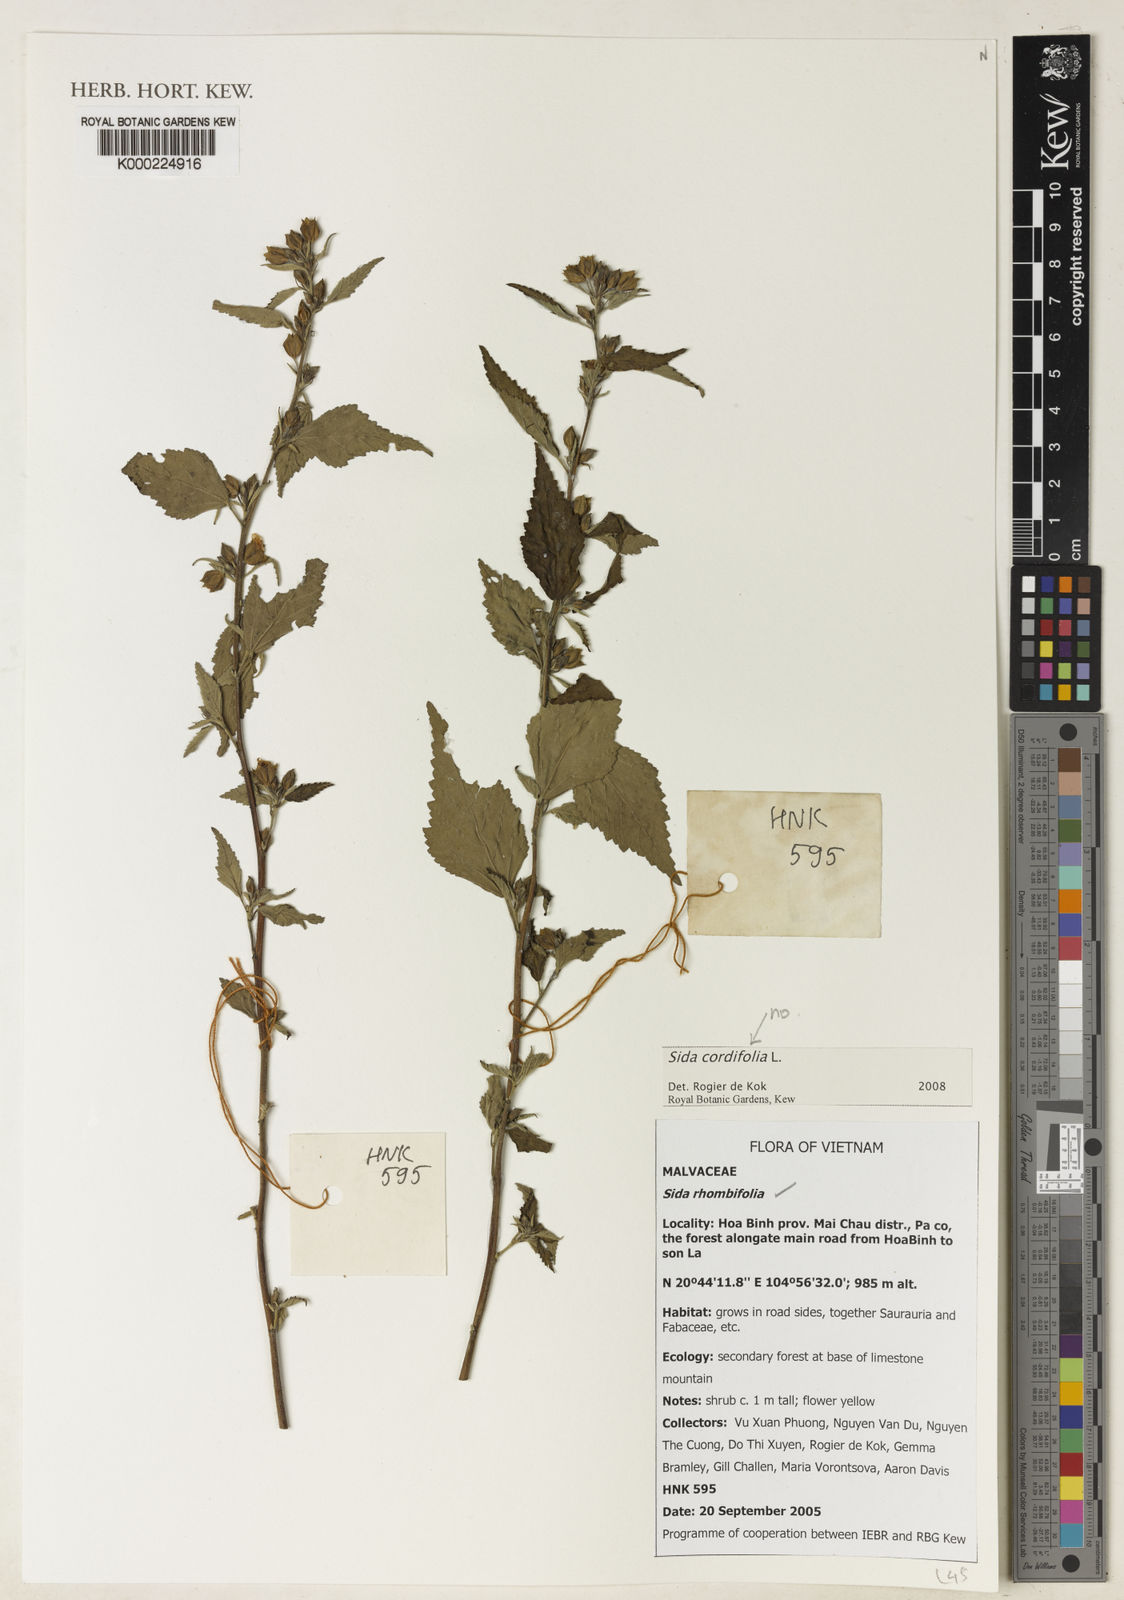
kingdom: Plantae
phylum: Tracheophyta
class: Magnoliopsida
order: Malvales
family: Malvaceae
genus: Sida
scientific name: Sida rhombifolia
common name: Queensland-hemp
